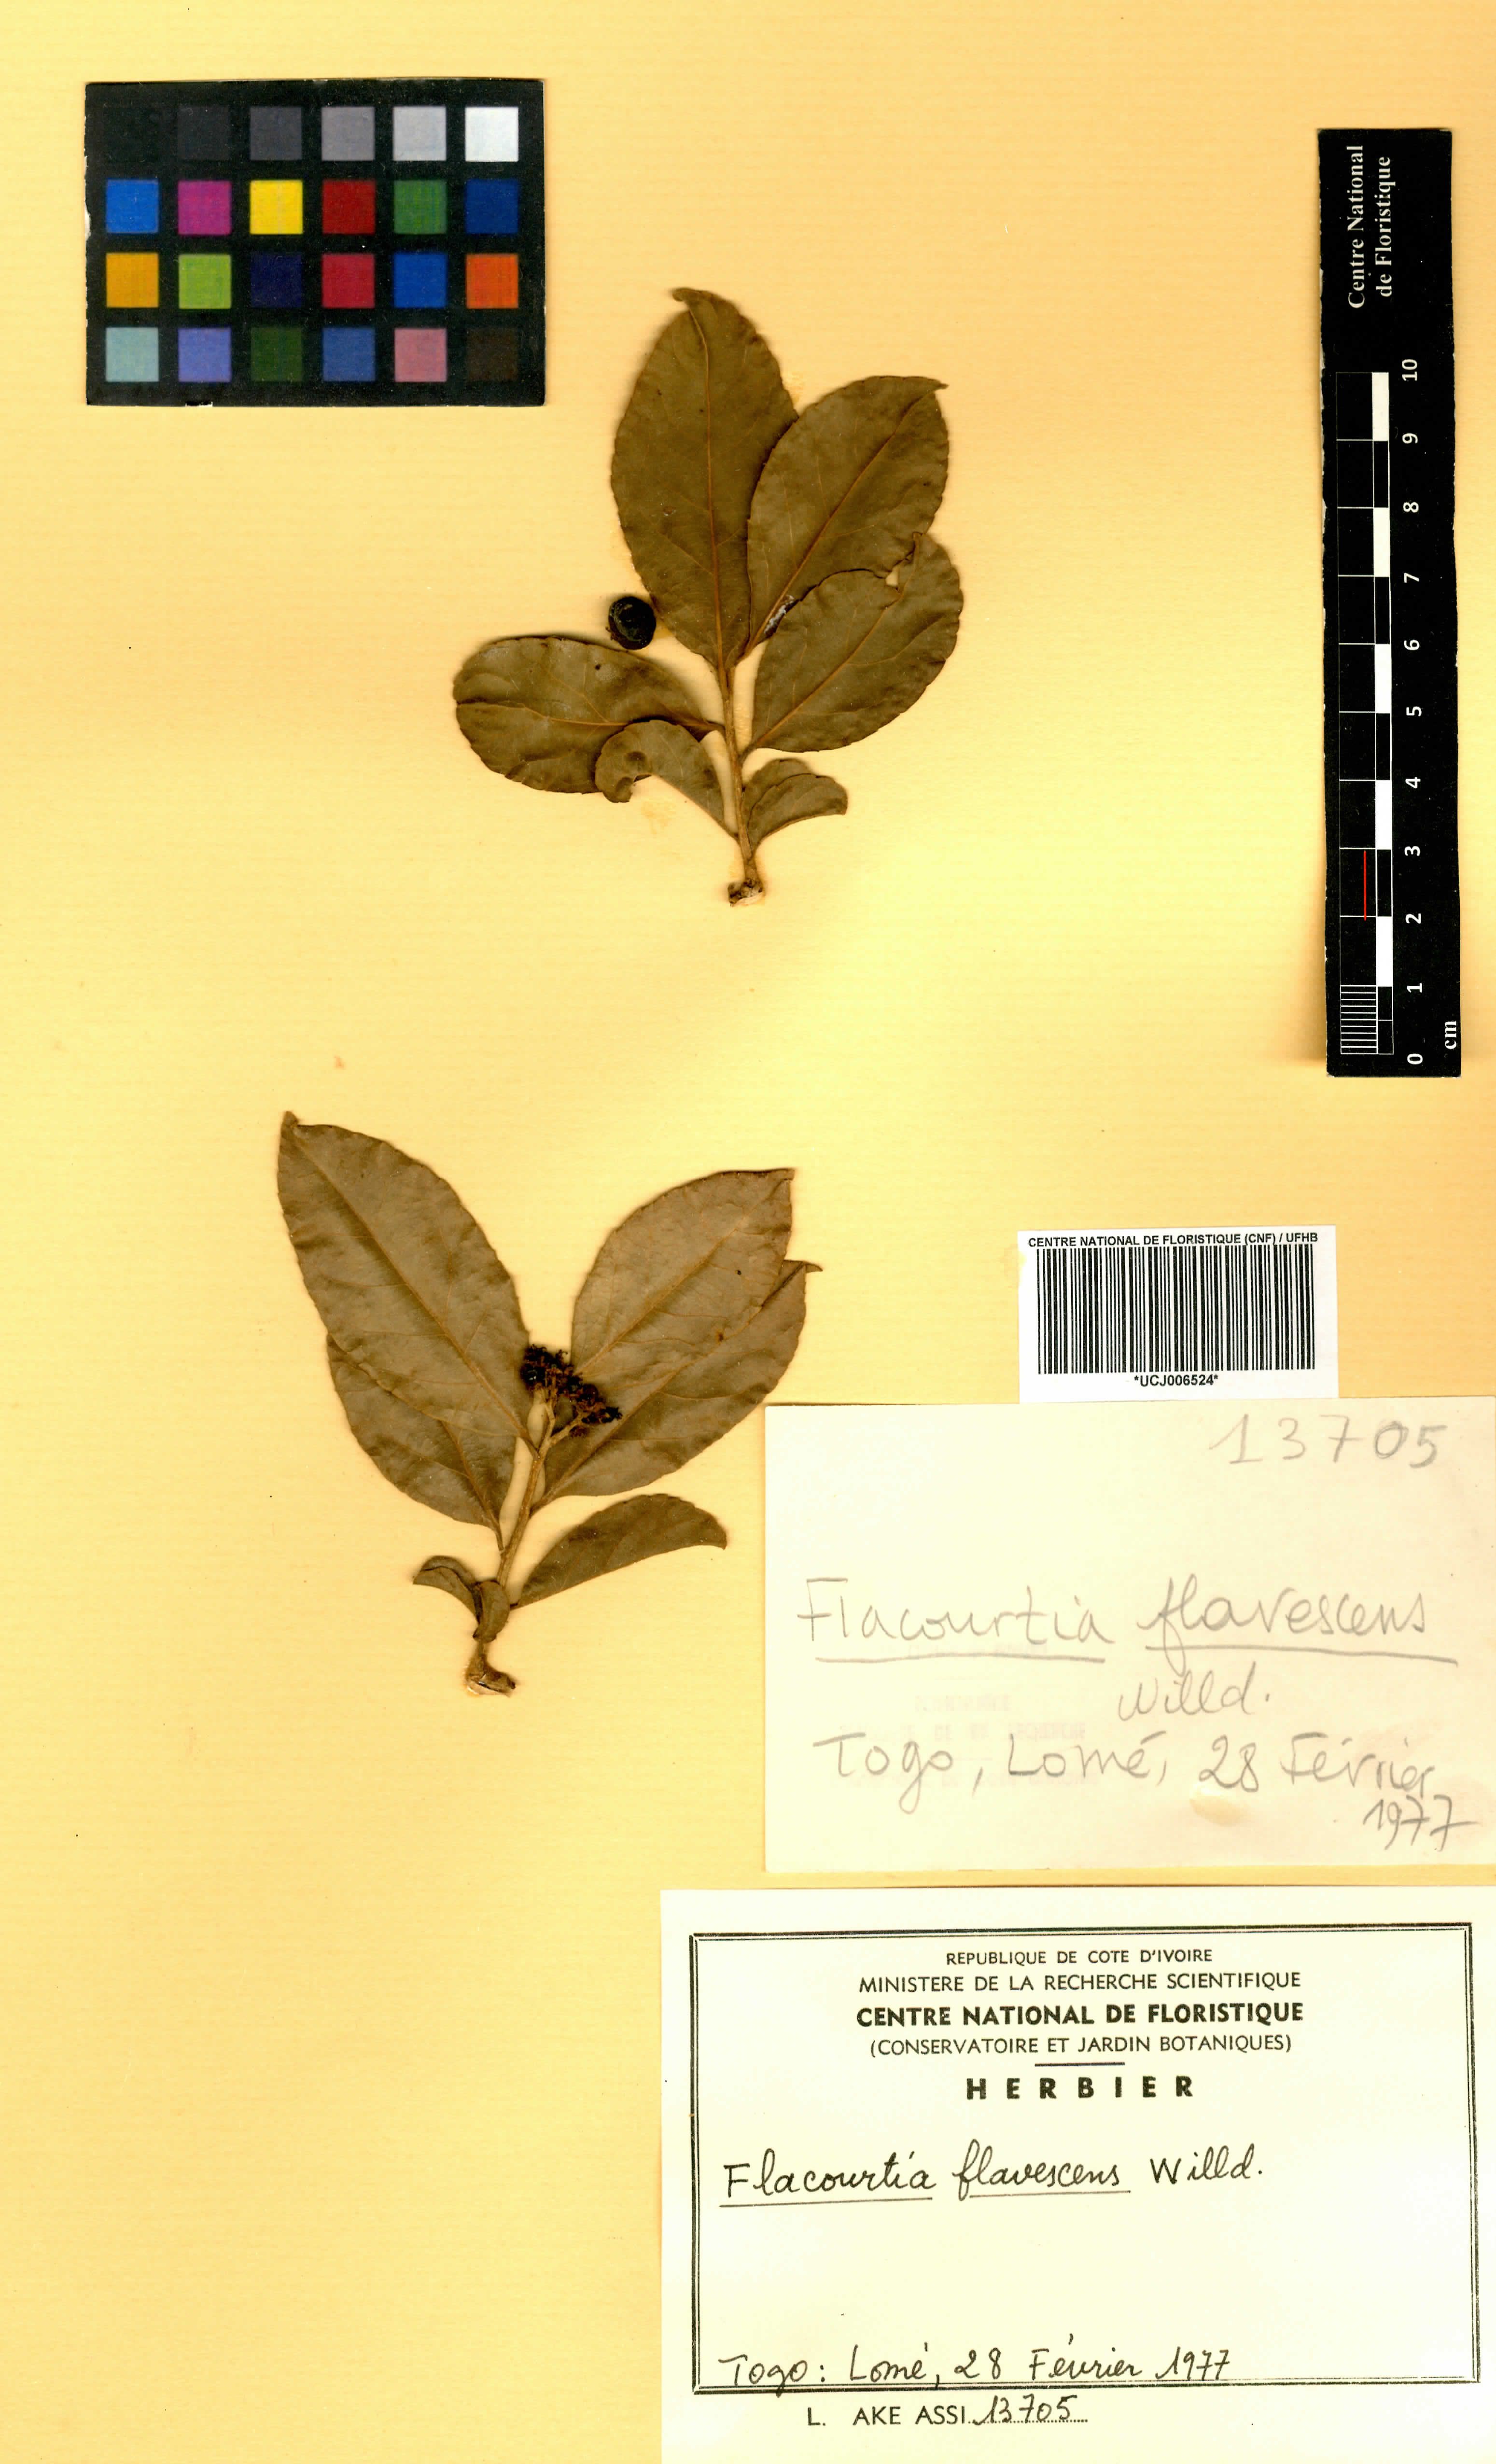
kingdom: Plantae
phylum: Tracheophyta
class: Magnoliopsida
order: Malpighiales
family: Salicaceae
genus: Flacourtia
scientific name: Flacourtia indica
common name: Governor's plum
